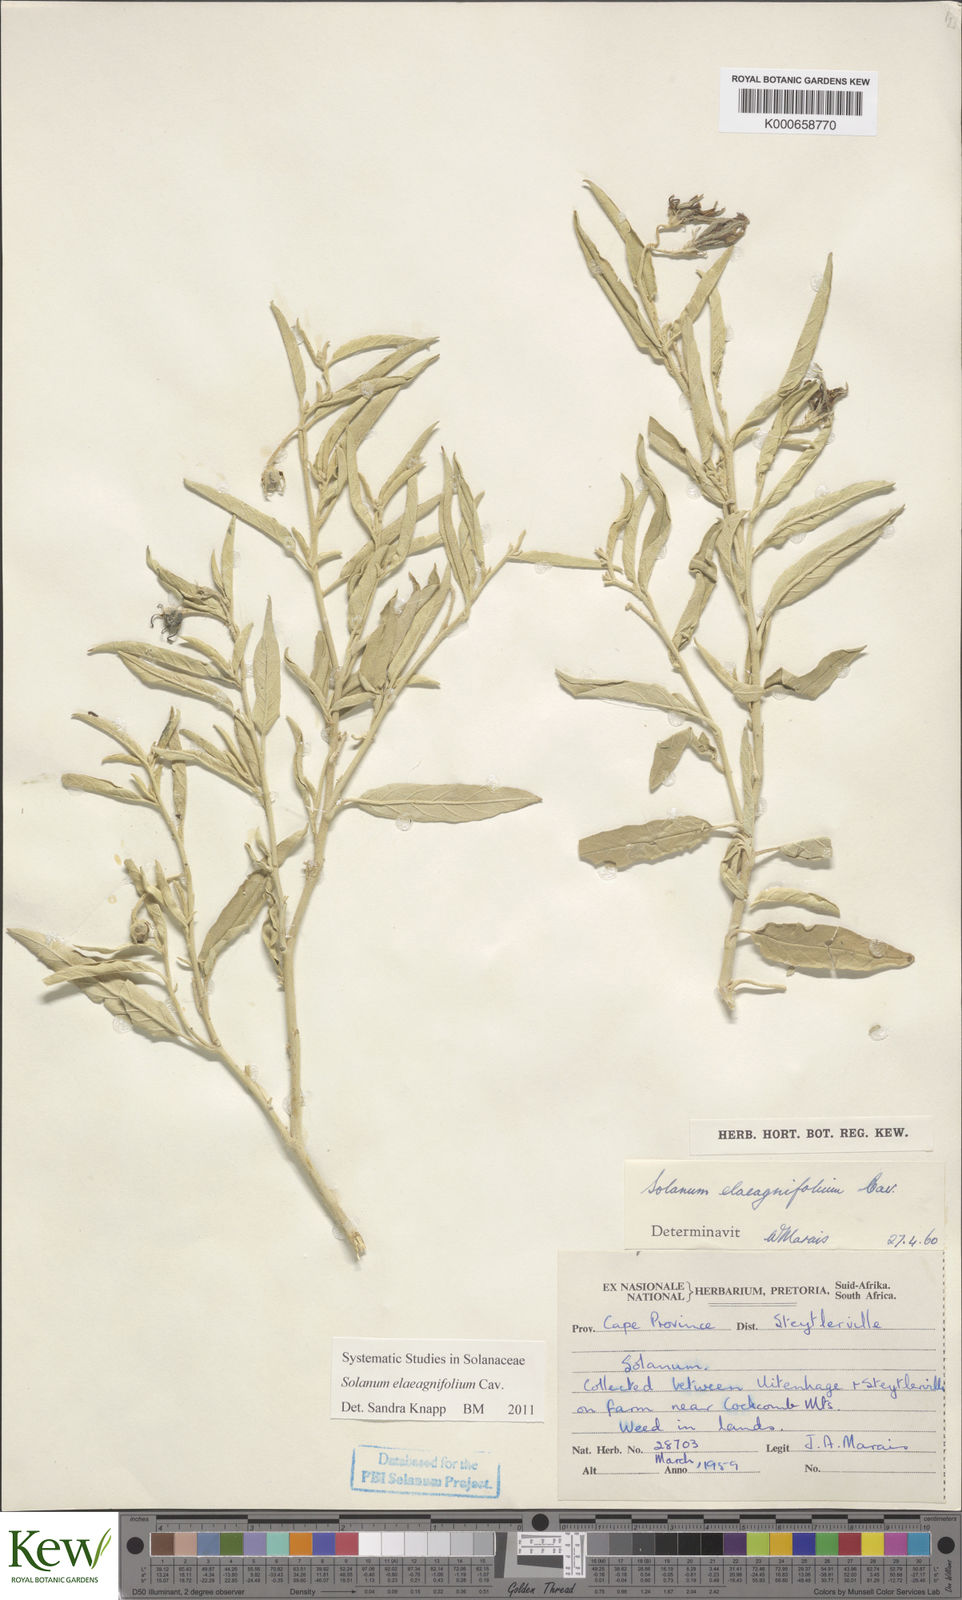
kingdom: Plantae
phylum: Tracheophyta
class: Magnoliopsida
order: Solanales
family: Solanaceae
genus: Solanum
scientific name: Solanum elaeagnifolium
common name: Silverleaf nightshade
